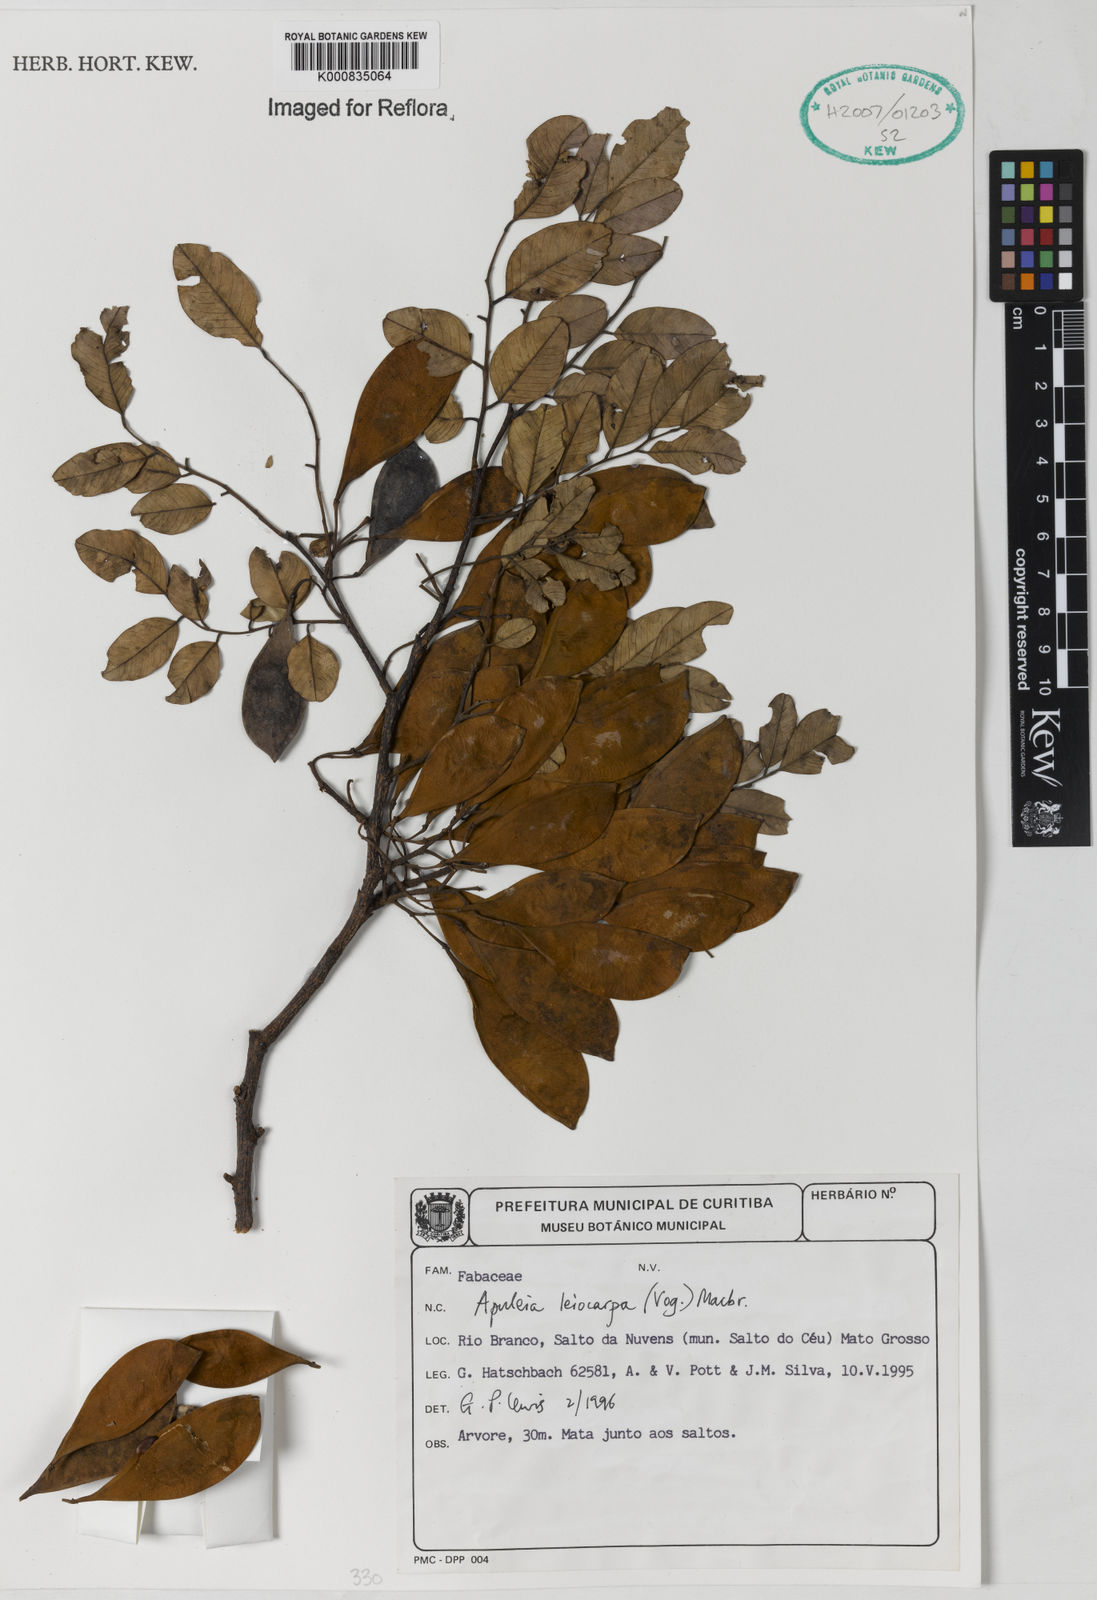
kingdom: Plantae
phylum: Tracheophyta
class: Magnoliopsida
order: Fabales
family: Fabaceae
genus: Apuleia
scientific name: Apuleia leiocarpa
